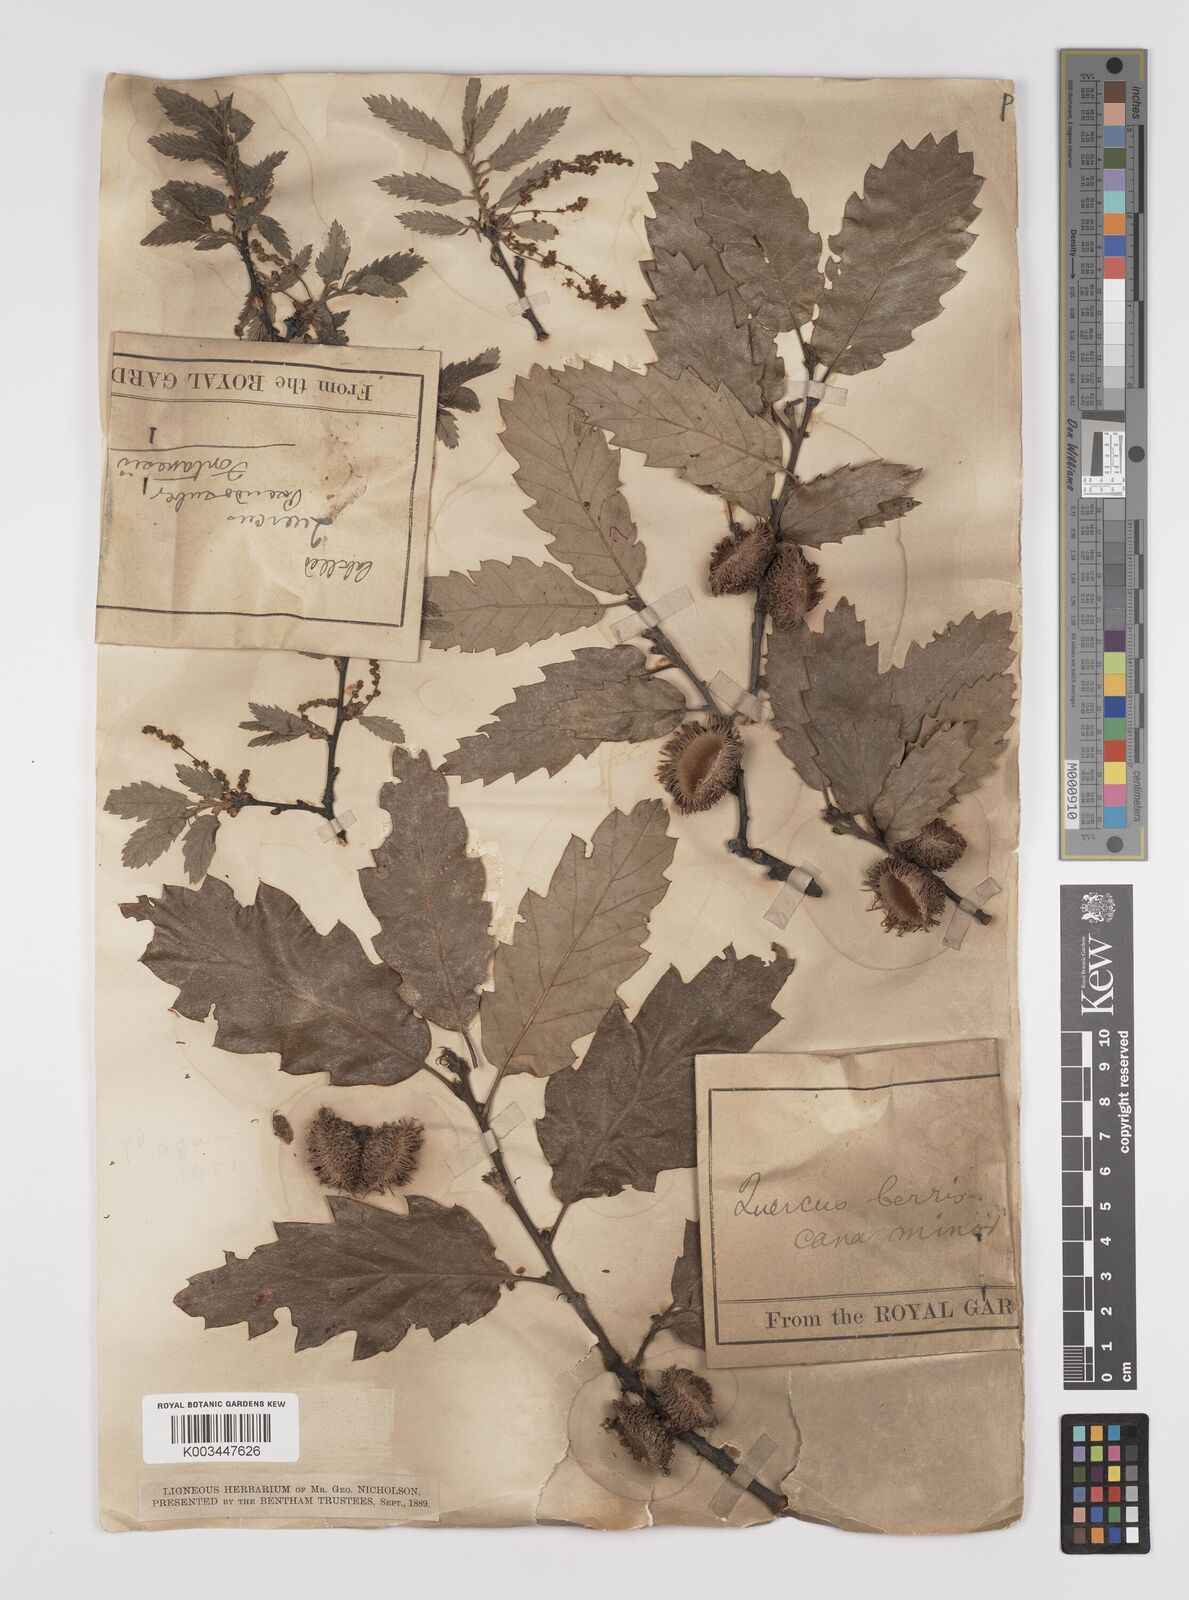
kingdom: Plantae
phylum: Tracheophyta
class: Magnoliopsida
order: Fagales
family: Fagaceae
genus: Quercus
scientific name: Quercus hispanica
